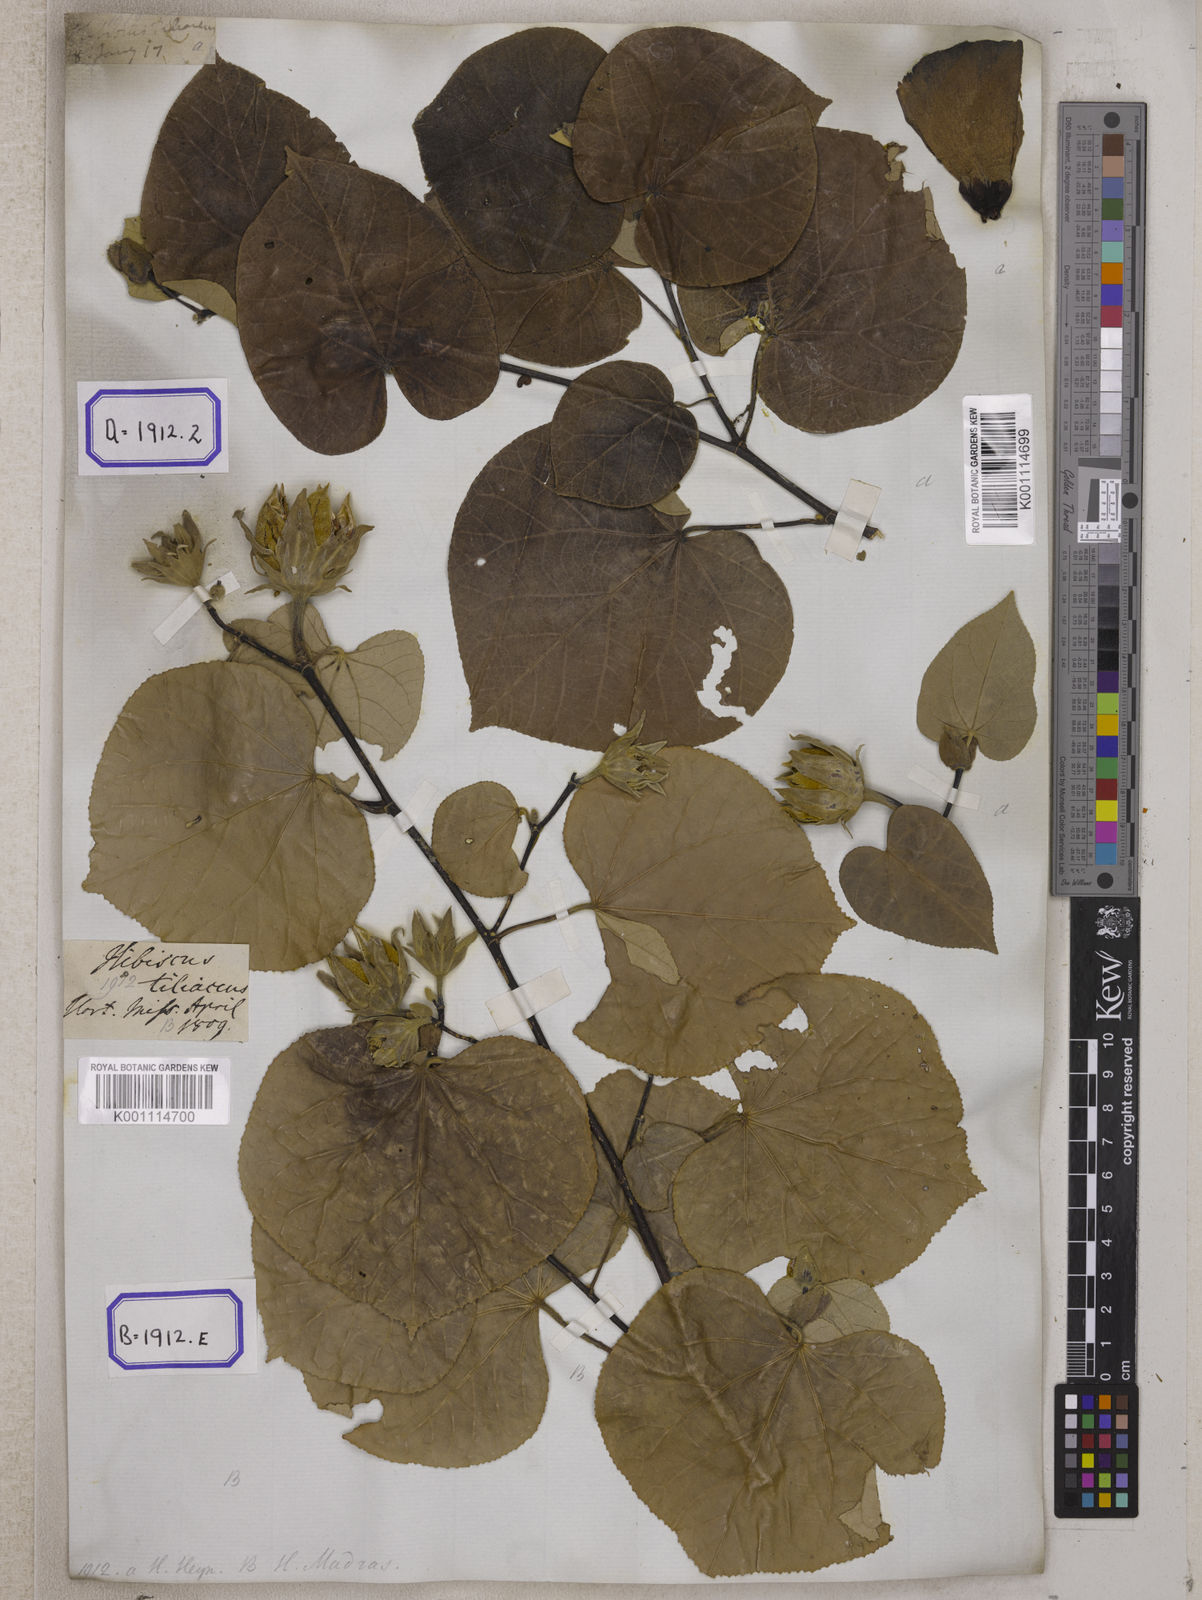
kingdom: Plantae
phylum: Tracheophyta
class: Magnoliopsida
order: Malvales
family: Malvaceae
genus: Talipariti
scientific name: Talipariti tiliaceum
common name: Sea hibiscus
